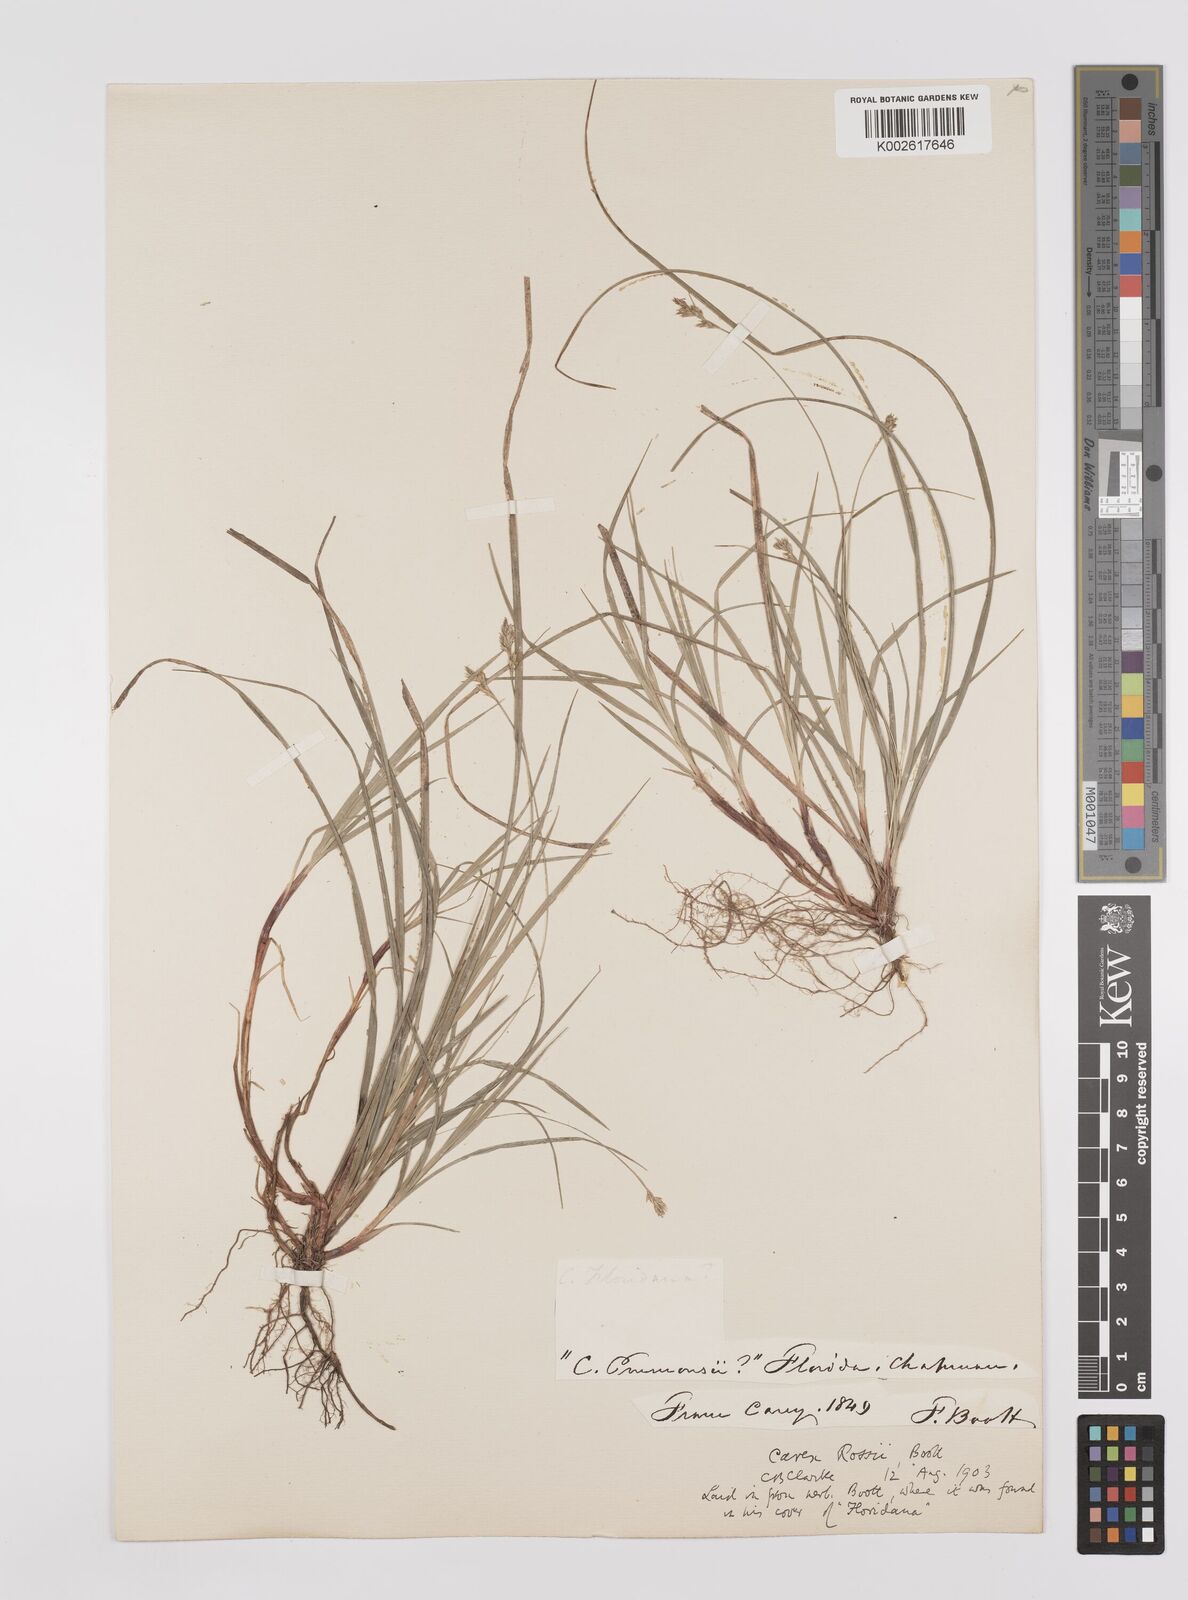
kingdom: Plantae
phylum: Tracheophyta
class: Liliopsida
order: Poales
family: Cyperaceae
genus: Carex
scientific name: Carex rossii
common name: Ross' sedge
